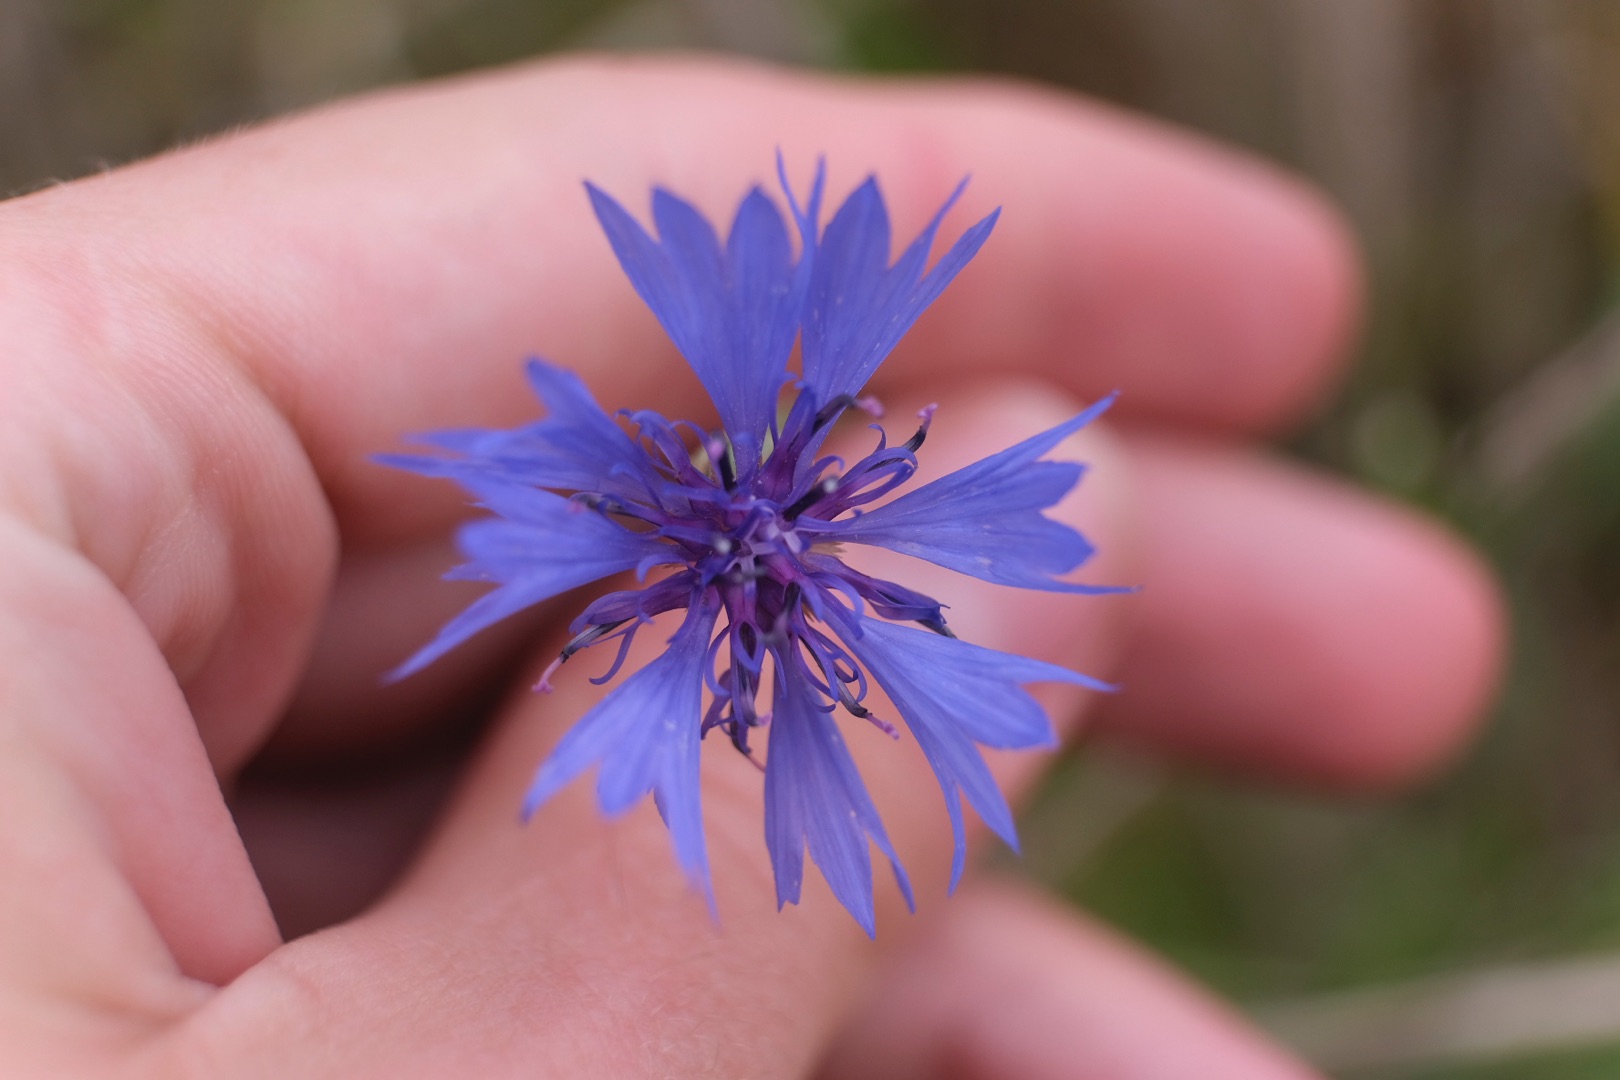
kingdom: Plantae
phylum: Tracheophyta
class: Magnoliopsida
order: Asterales
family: Asteraceae
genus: Centaurea
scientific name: Centaurea cyanus
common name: Kornblomst
